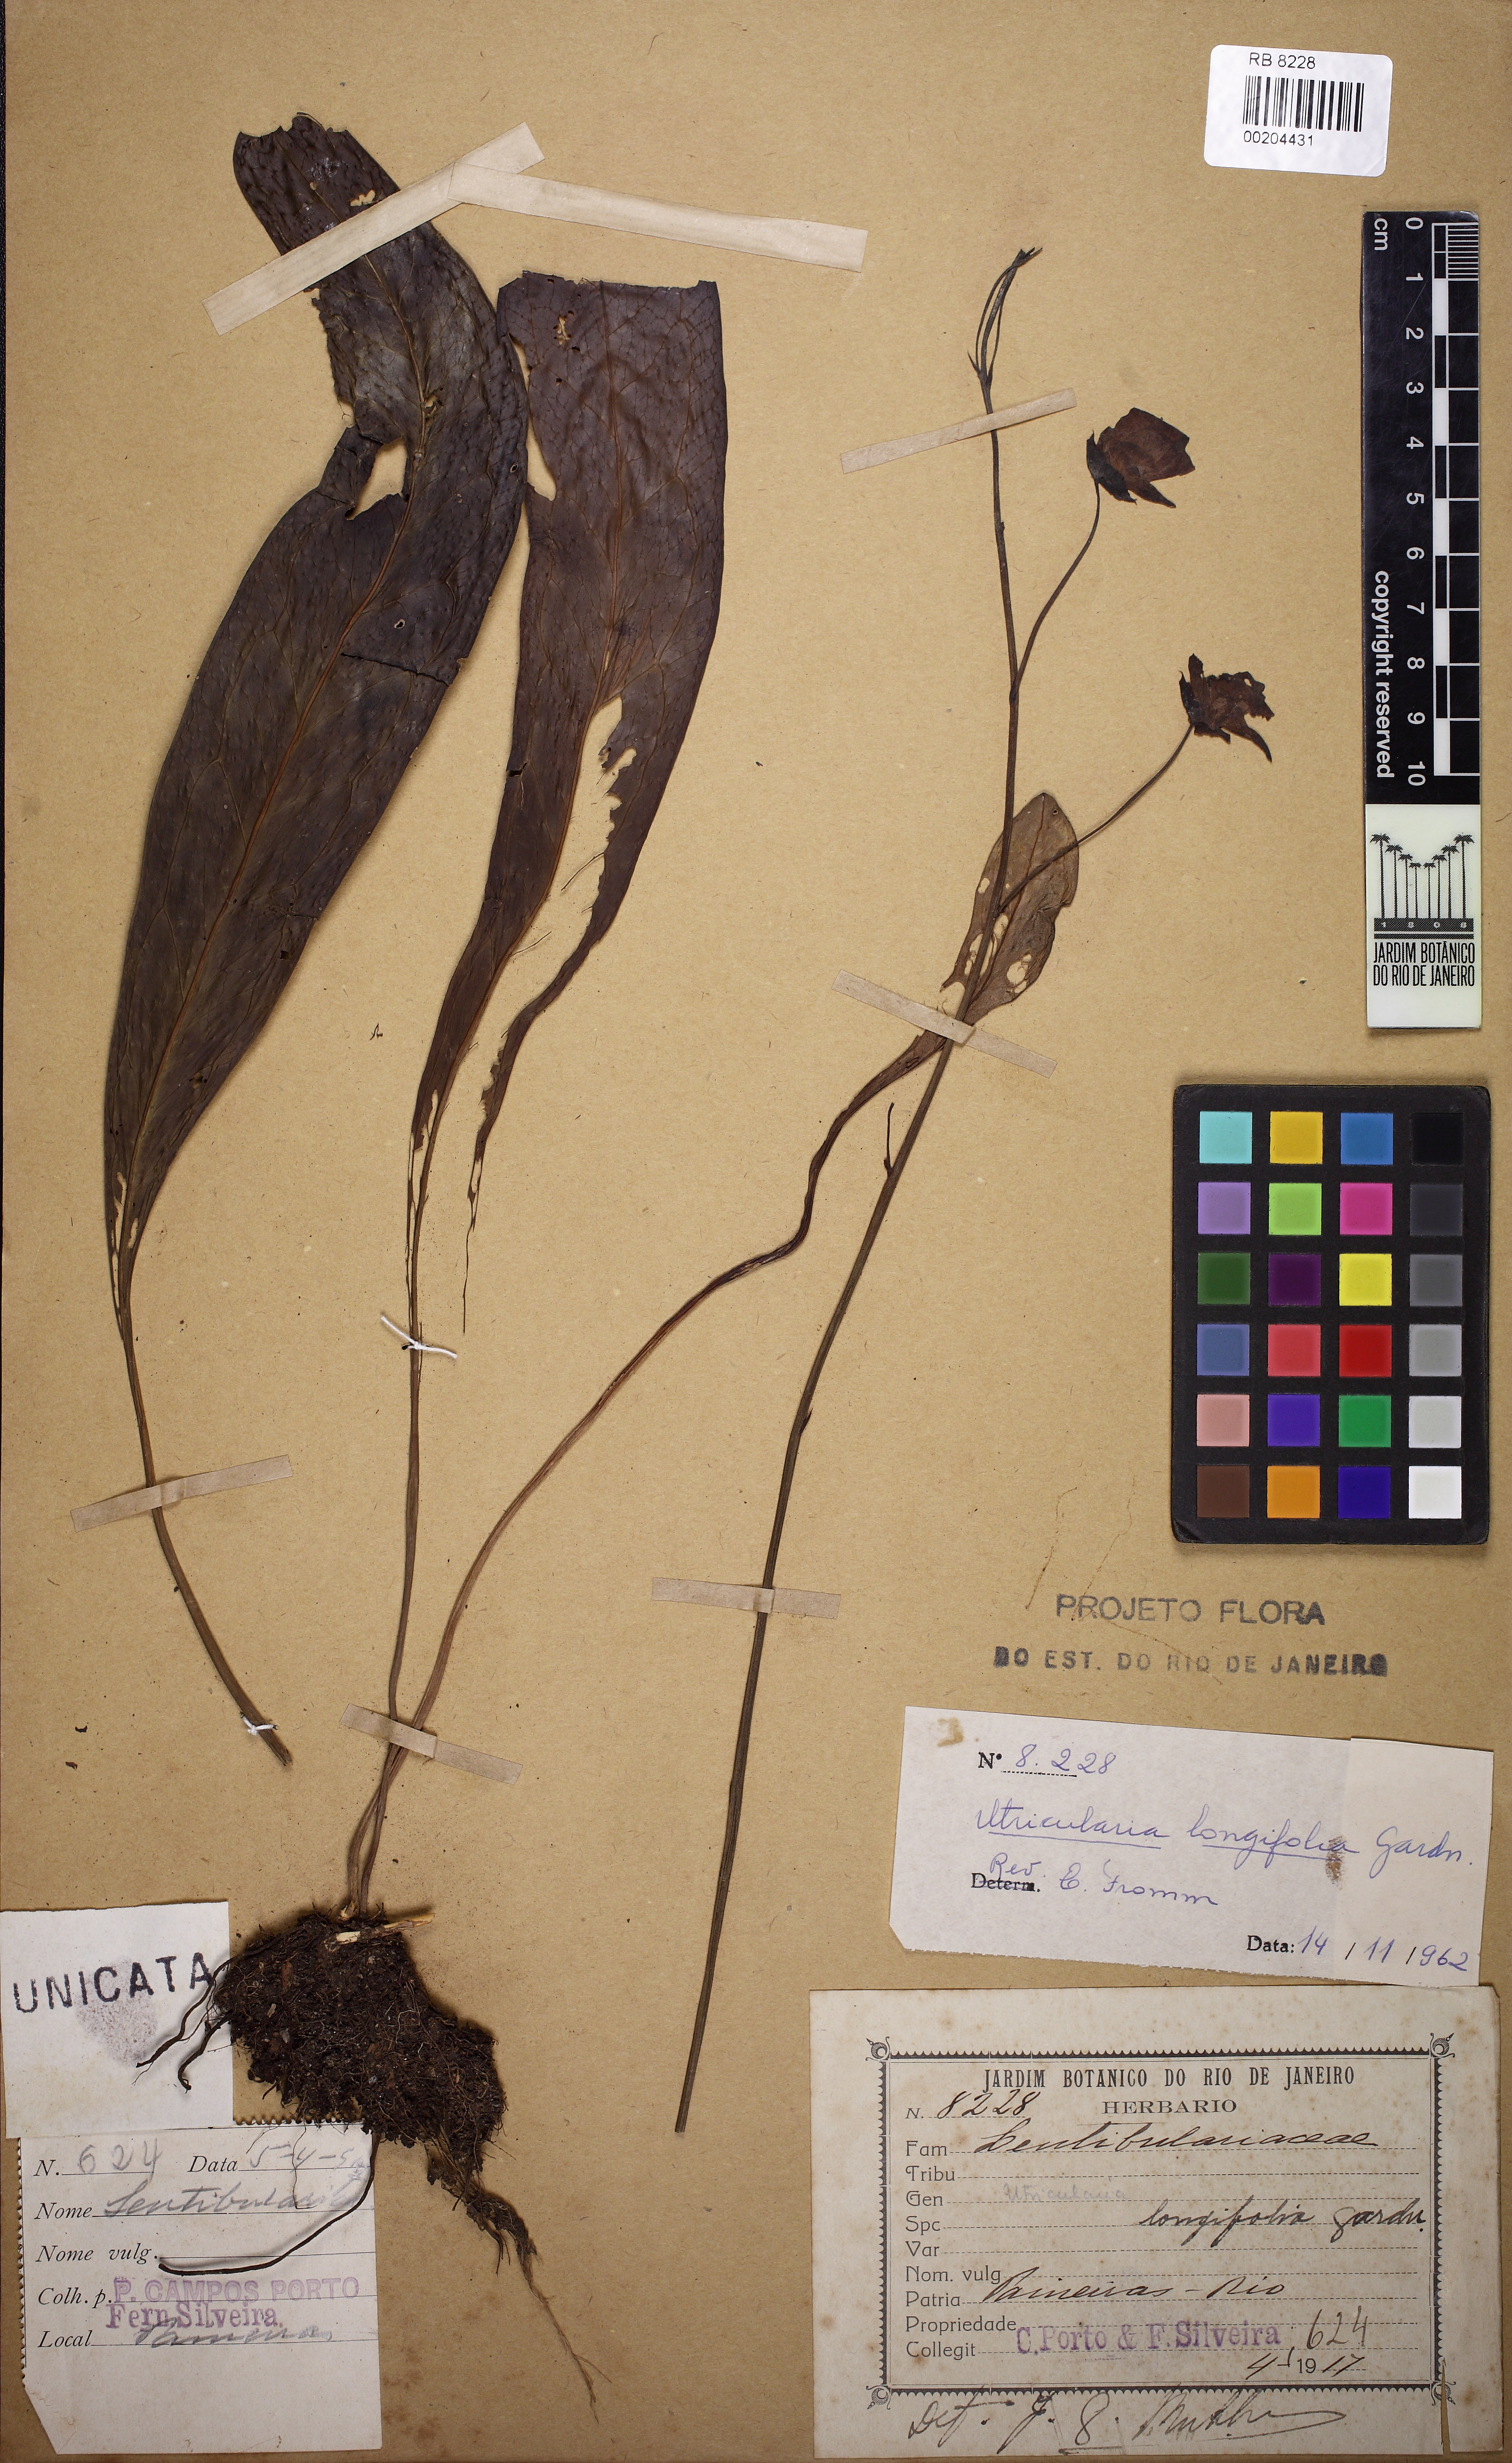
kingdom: Plantae
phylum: Tracheophyta
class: Magnoliopsida
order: Lamiales
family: Lentibulariaceae
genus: Utricularia
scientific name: Utricularia longifolia
